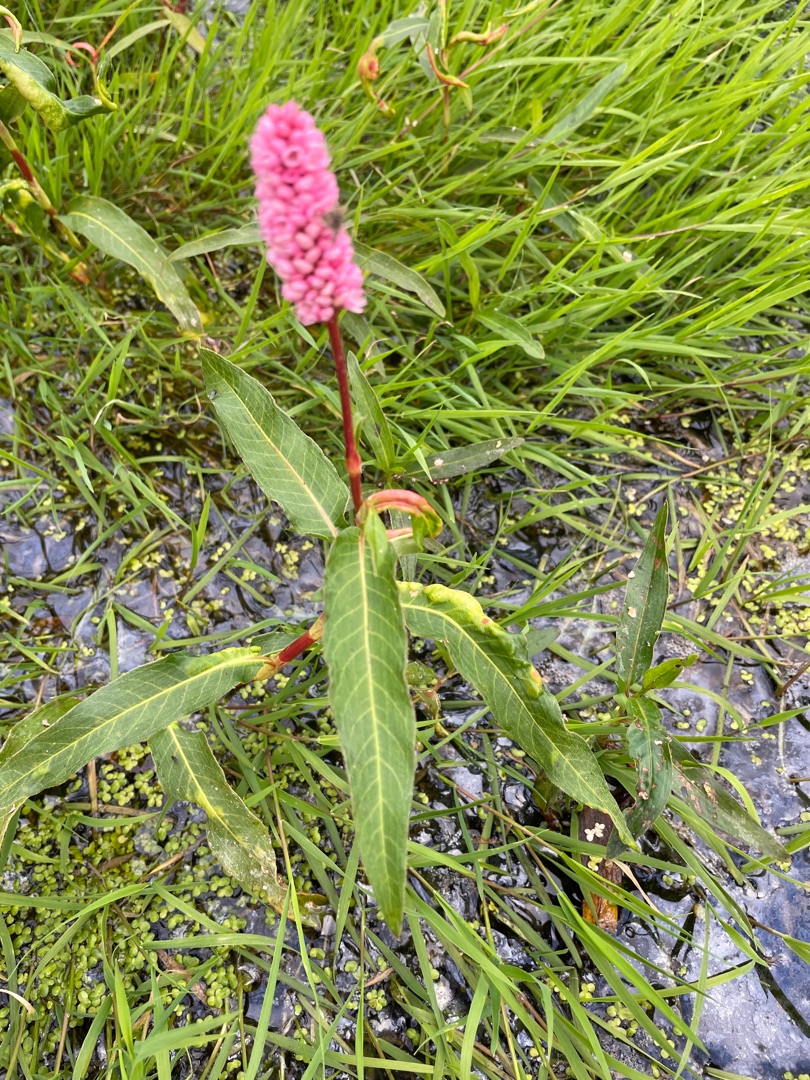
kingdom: Plantae
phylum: Tracheophyta
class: Magnoliopsida
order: Caryophyllales
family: Polygonaceae
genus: Persicaria
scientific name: Persicaria amphibia
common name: Vand-pileurt
